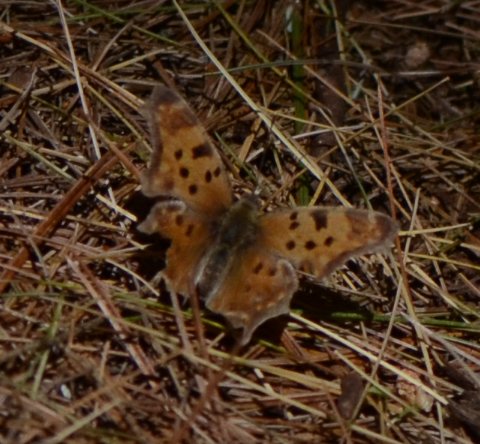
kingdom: Animalia
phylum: Arthropoda
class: Insecta
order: Lepidoptera
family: Nymphalidae
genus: Polygonia
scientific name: Polygonia comma
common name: Eastern Comma
